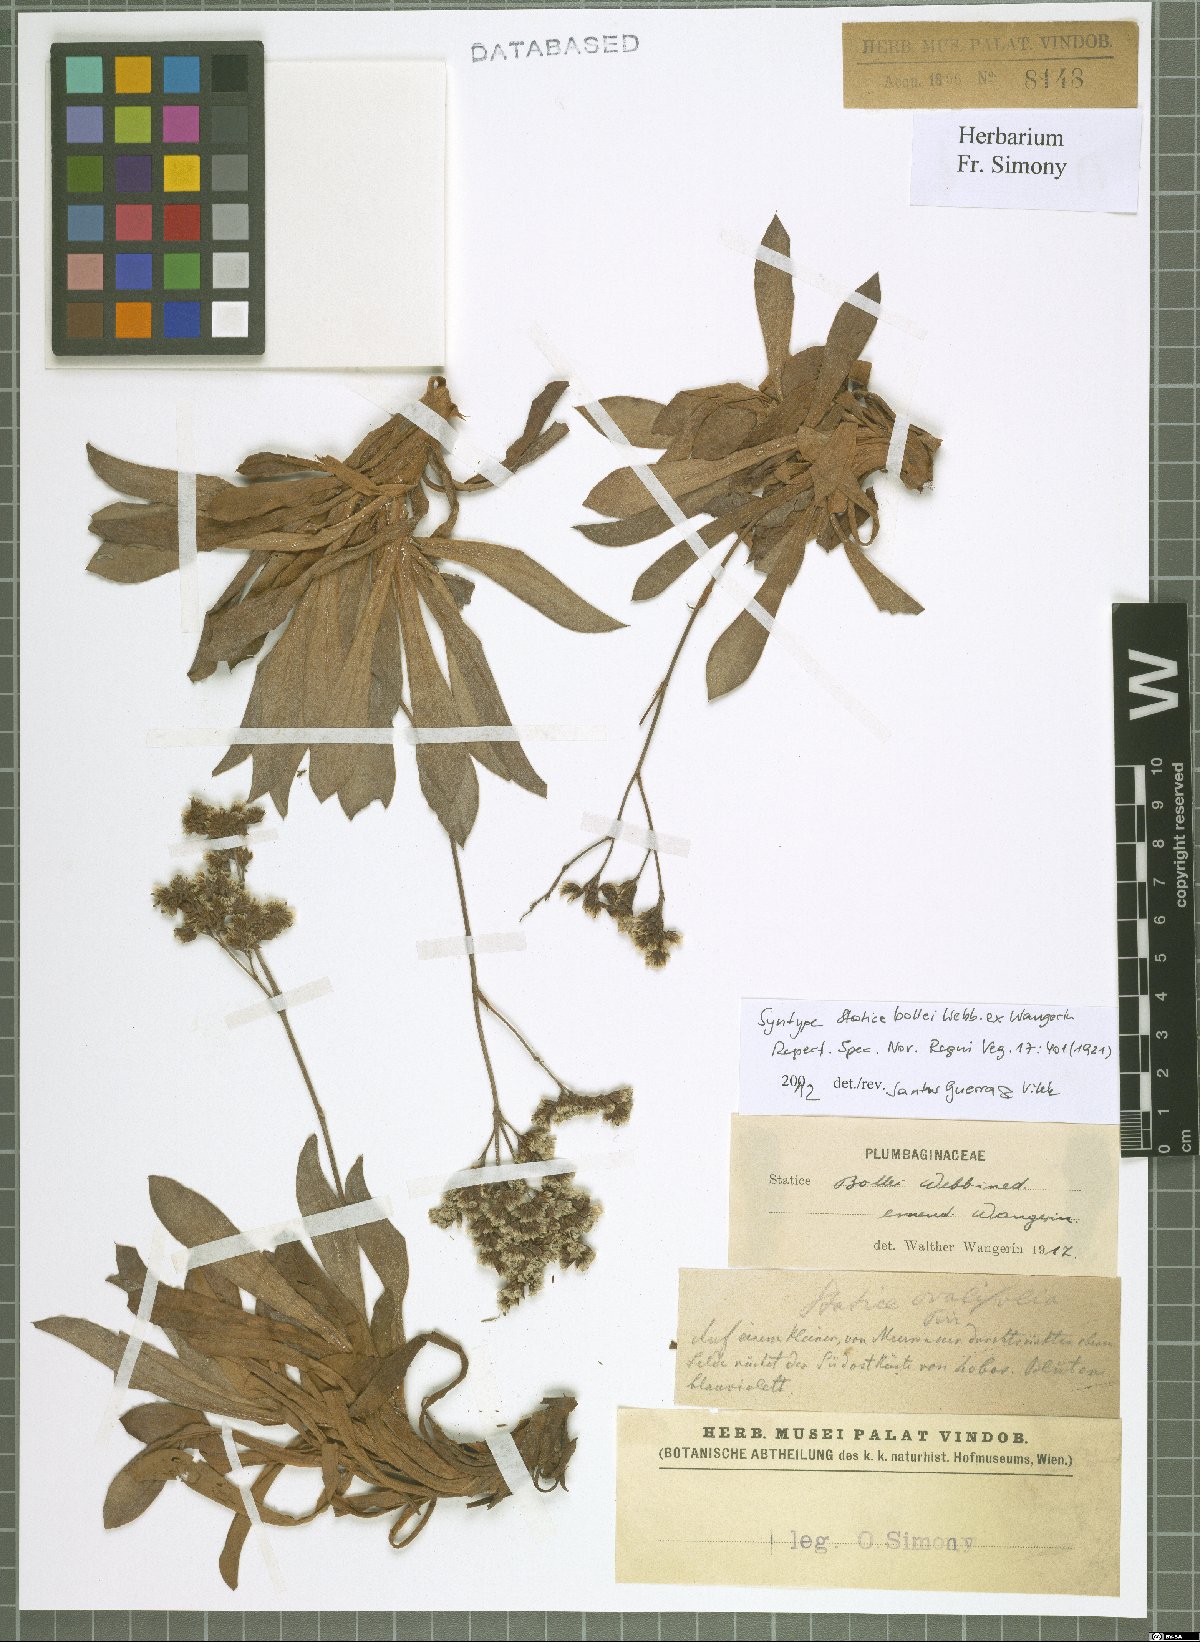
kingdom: Plantae
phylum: Tracheophyta
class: Magnoliopsida
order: Caryophyllales
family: Plumbaginaceae
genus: Limonium
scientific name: Limonium bollei
